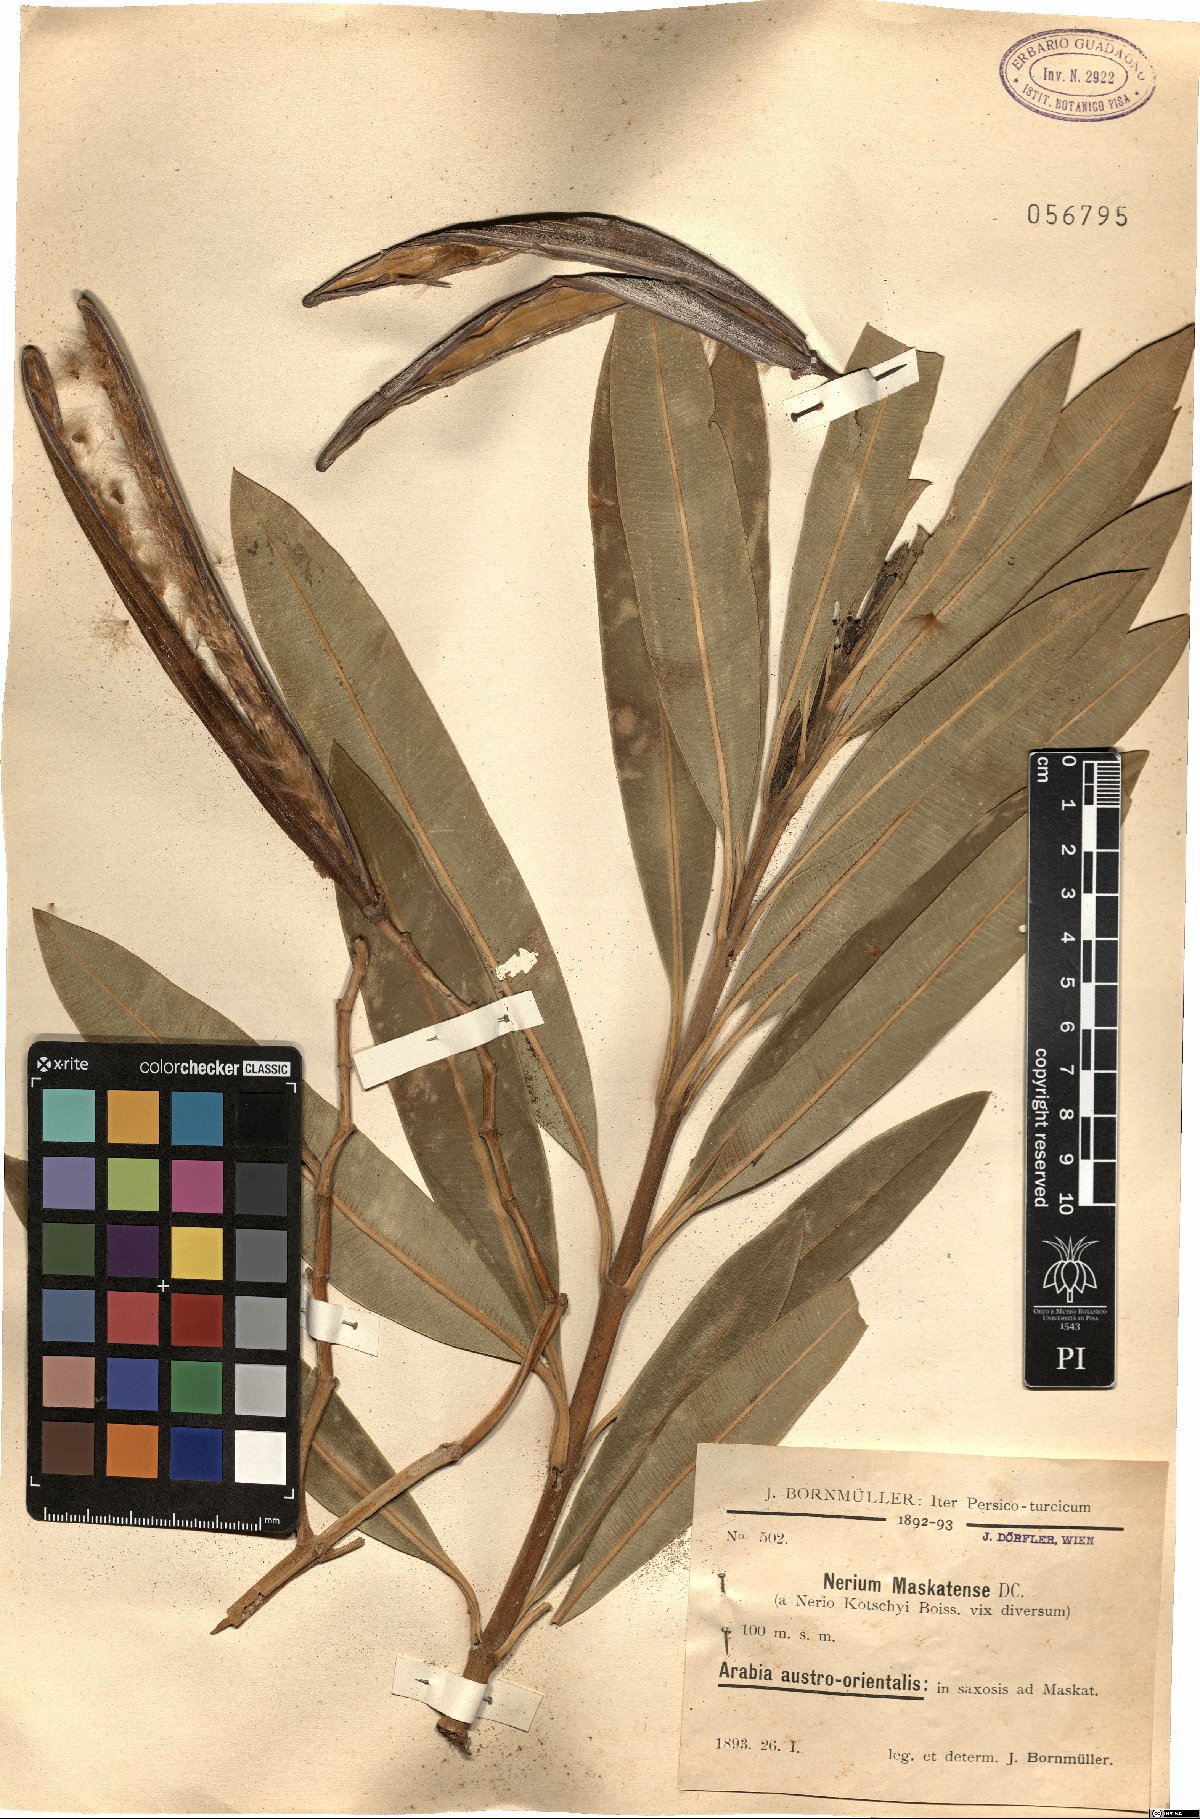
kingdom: Plantae
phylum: Tracheophyta
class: Magnoliopsida
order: Gentianales
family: Apocynaceae
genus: Nerium
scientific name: Nerium mascatense
